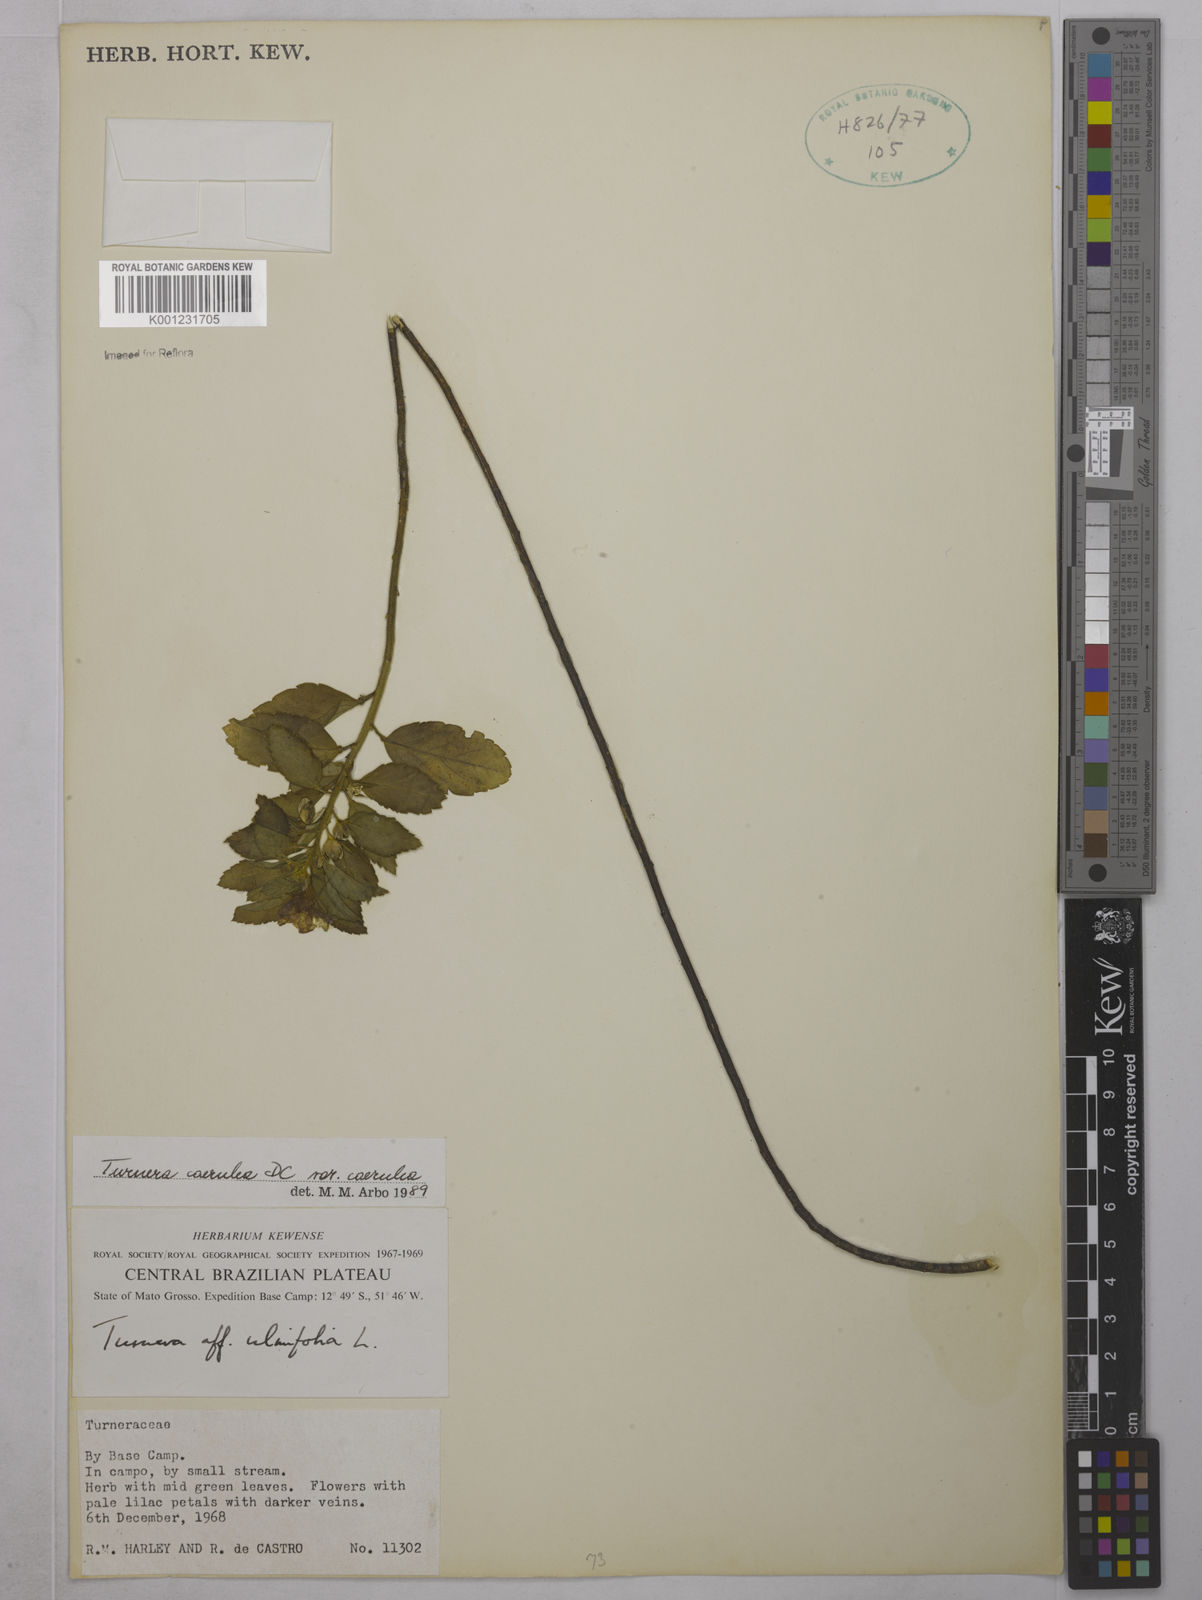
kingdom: Plantae
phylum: Tracheophyta
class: Magnoliopsida
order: Malpighiales
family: Turneraceae
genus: Turnera
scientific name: Turnera
